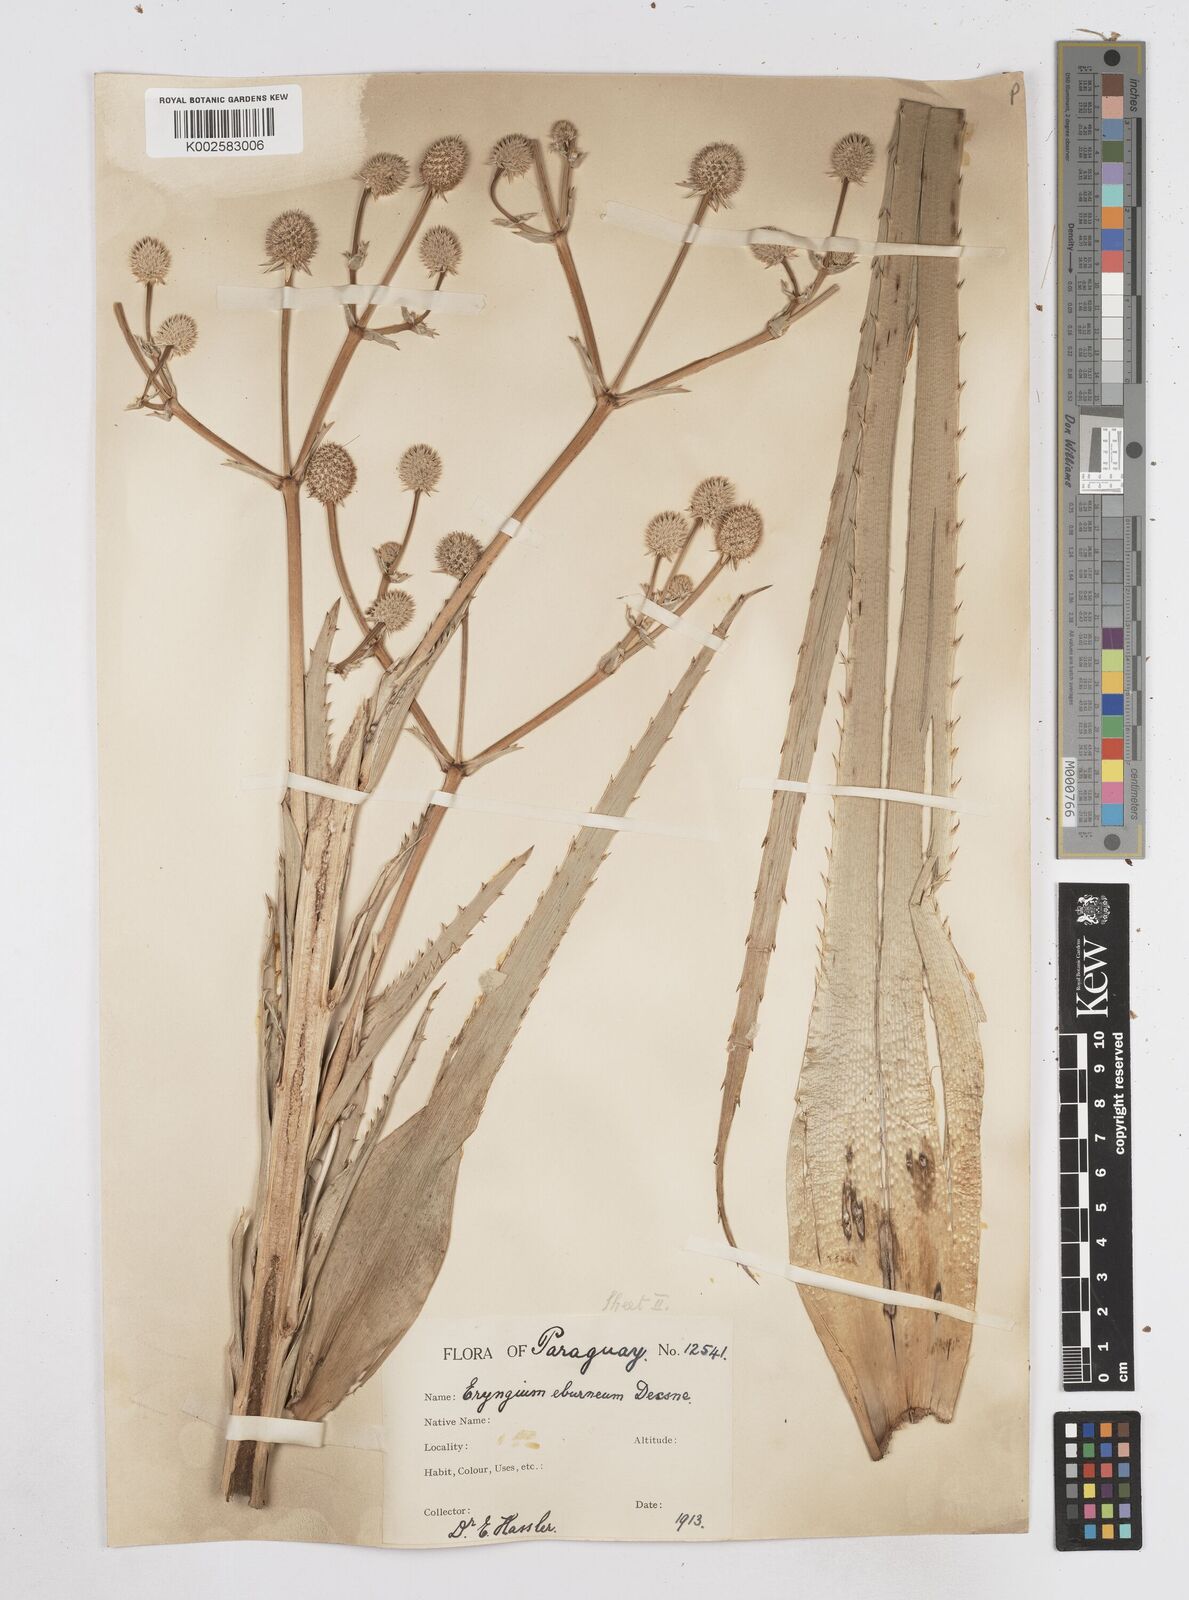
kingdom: Plantae
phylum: Tracheophyta
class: Magnoliopsida
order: Apiales
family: Apiaceae
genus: Eryngium
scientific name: Eryngium eburneum
